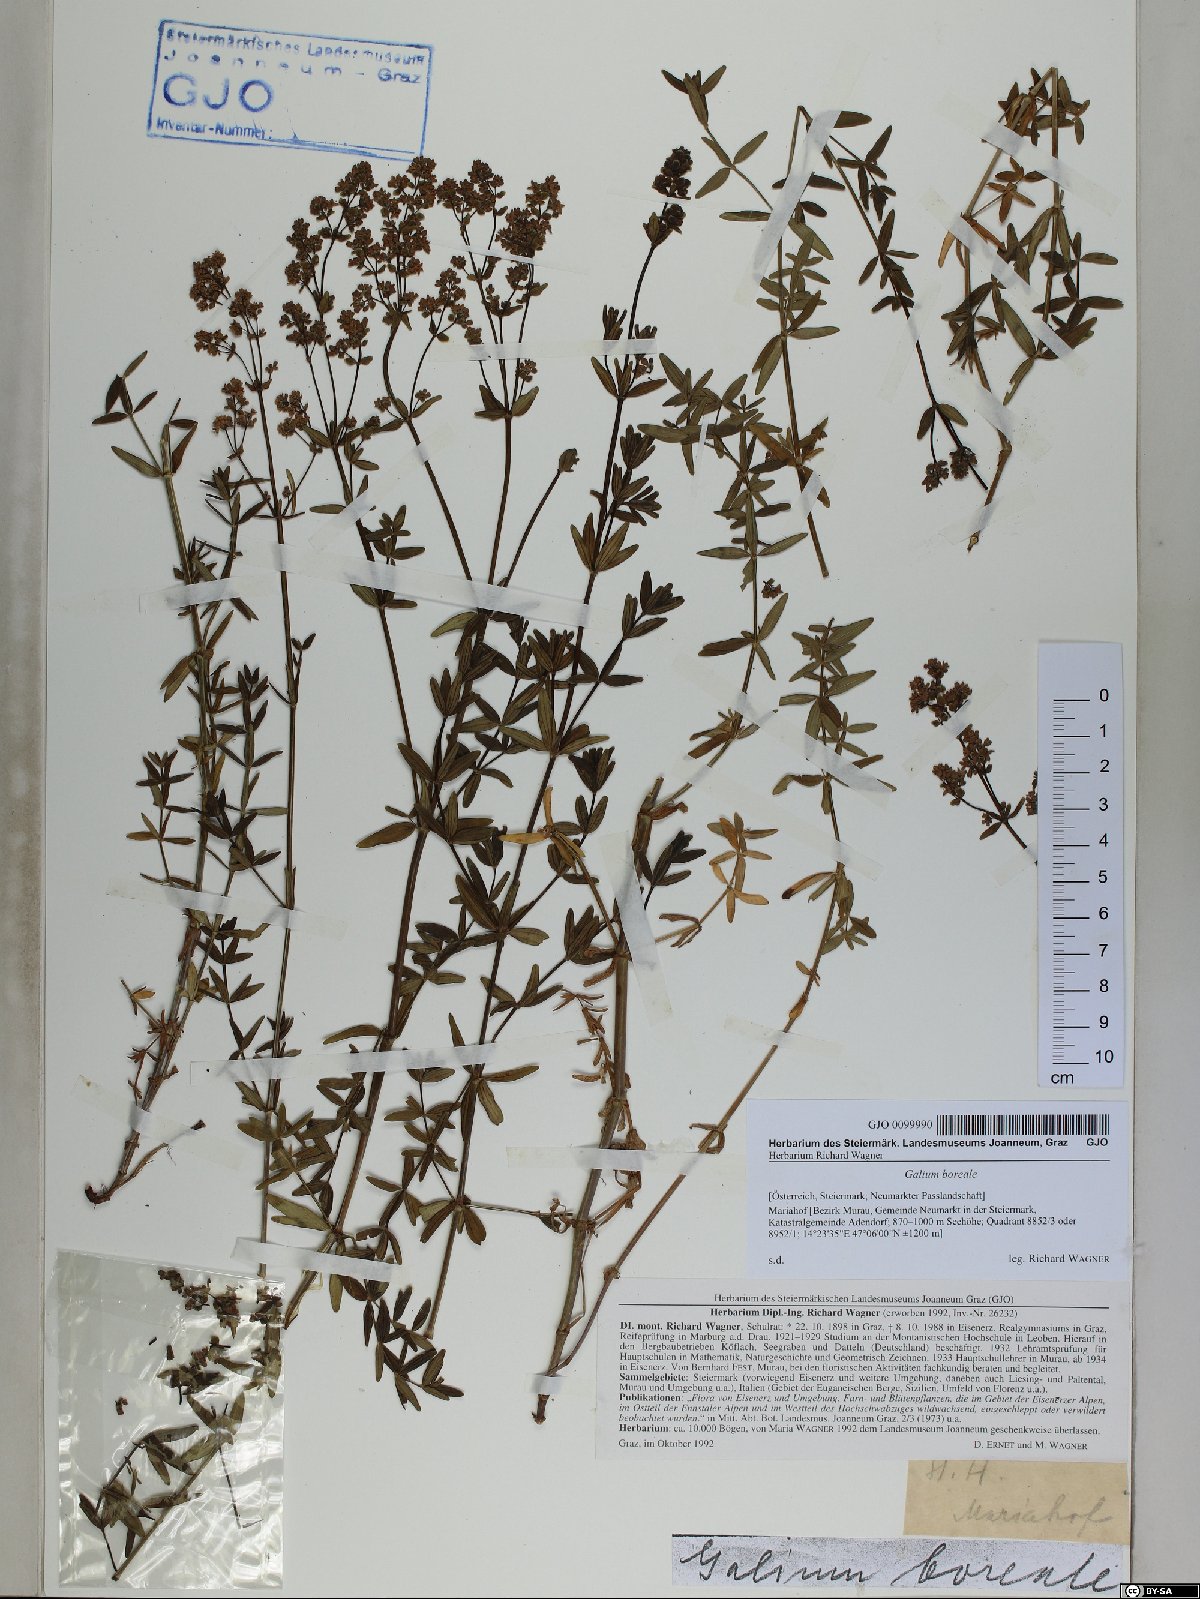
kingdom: Plantae
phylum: Tracheophyta
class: Magnoliopsida
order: Gentianales
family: Rubiaceae
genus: Galium
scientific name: Galium boreale
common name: Northern bedstraw
